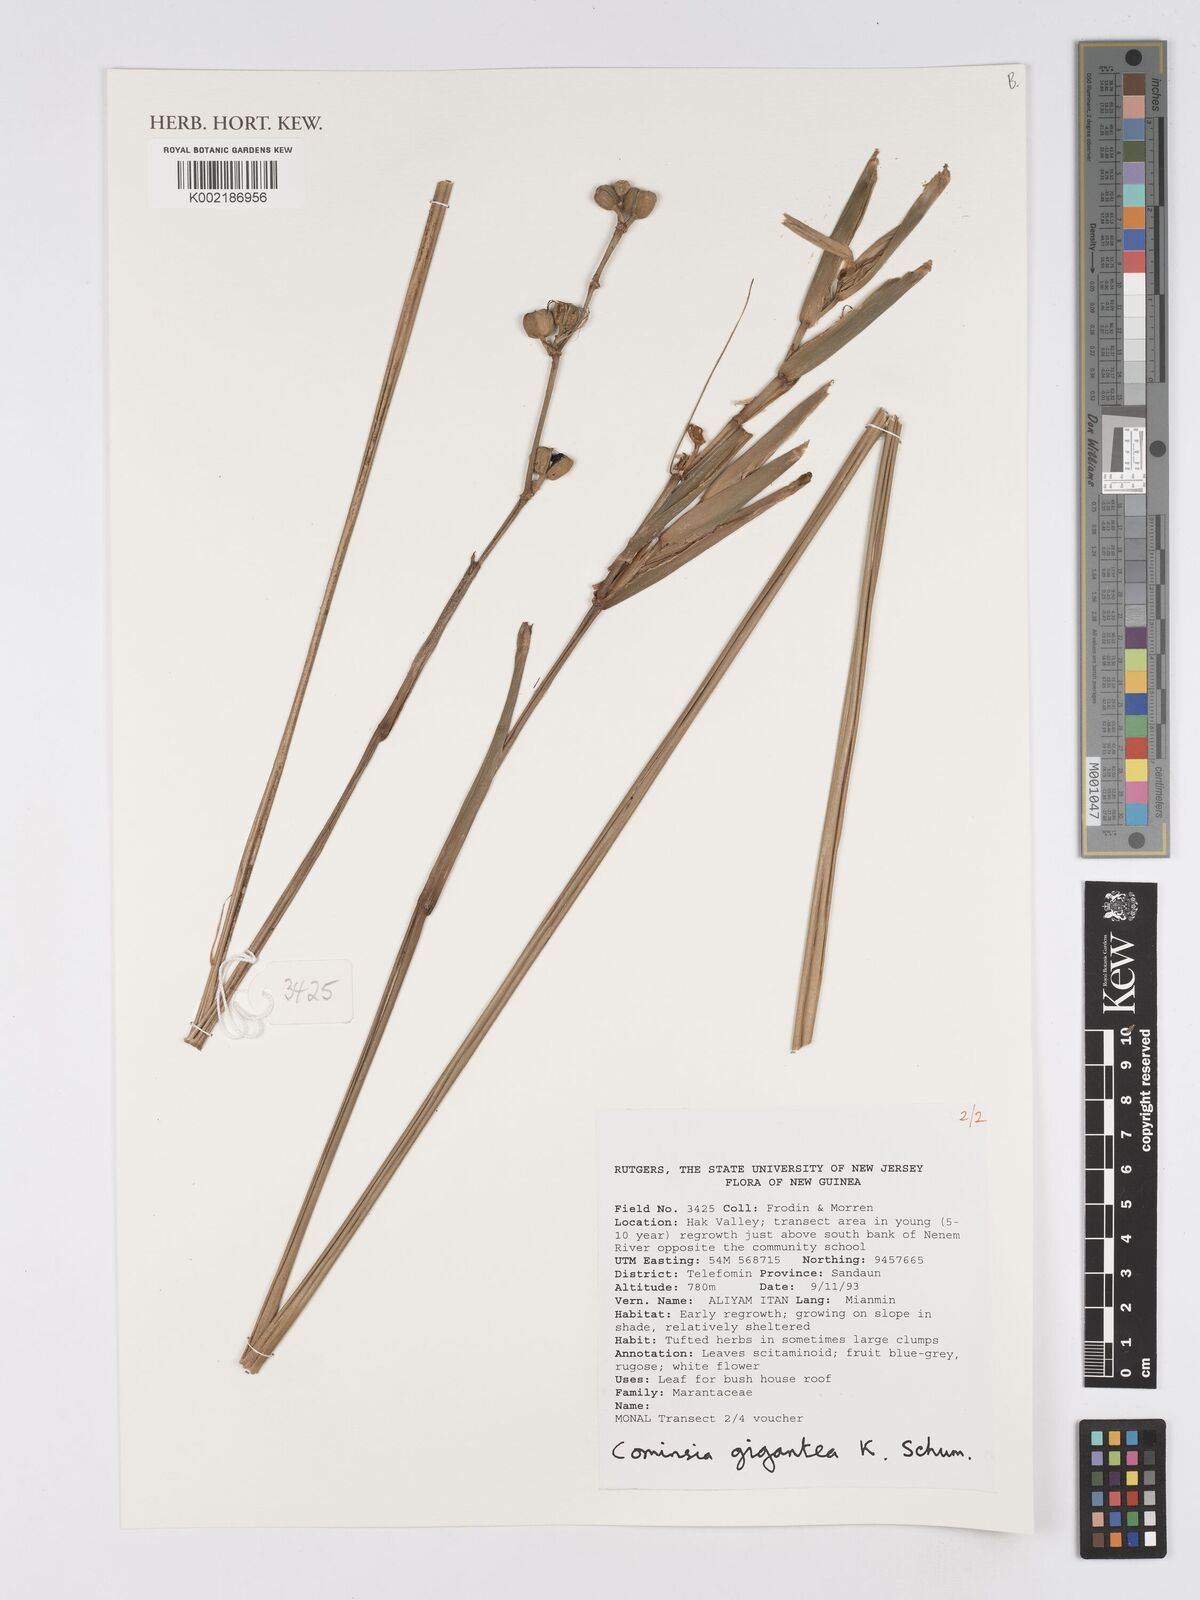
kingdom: Plantae
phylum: Tracheophyta
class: Liliopsida
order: Zingiberales
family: Marantaceae
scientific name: Marantaceae
